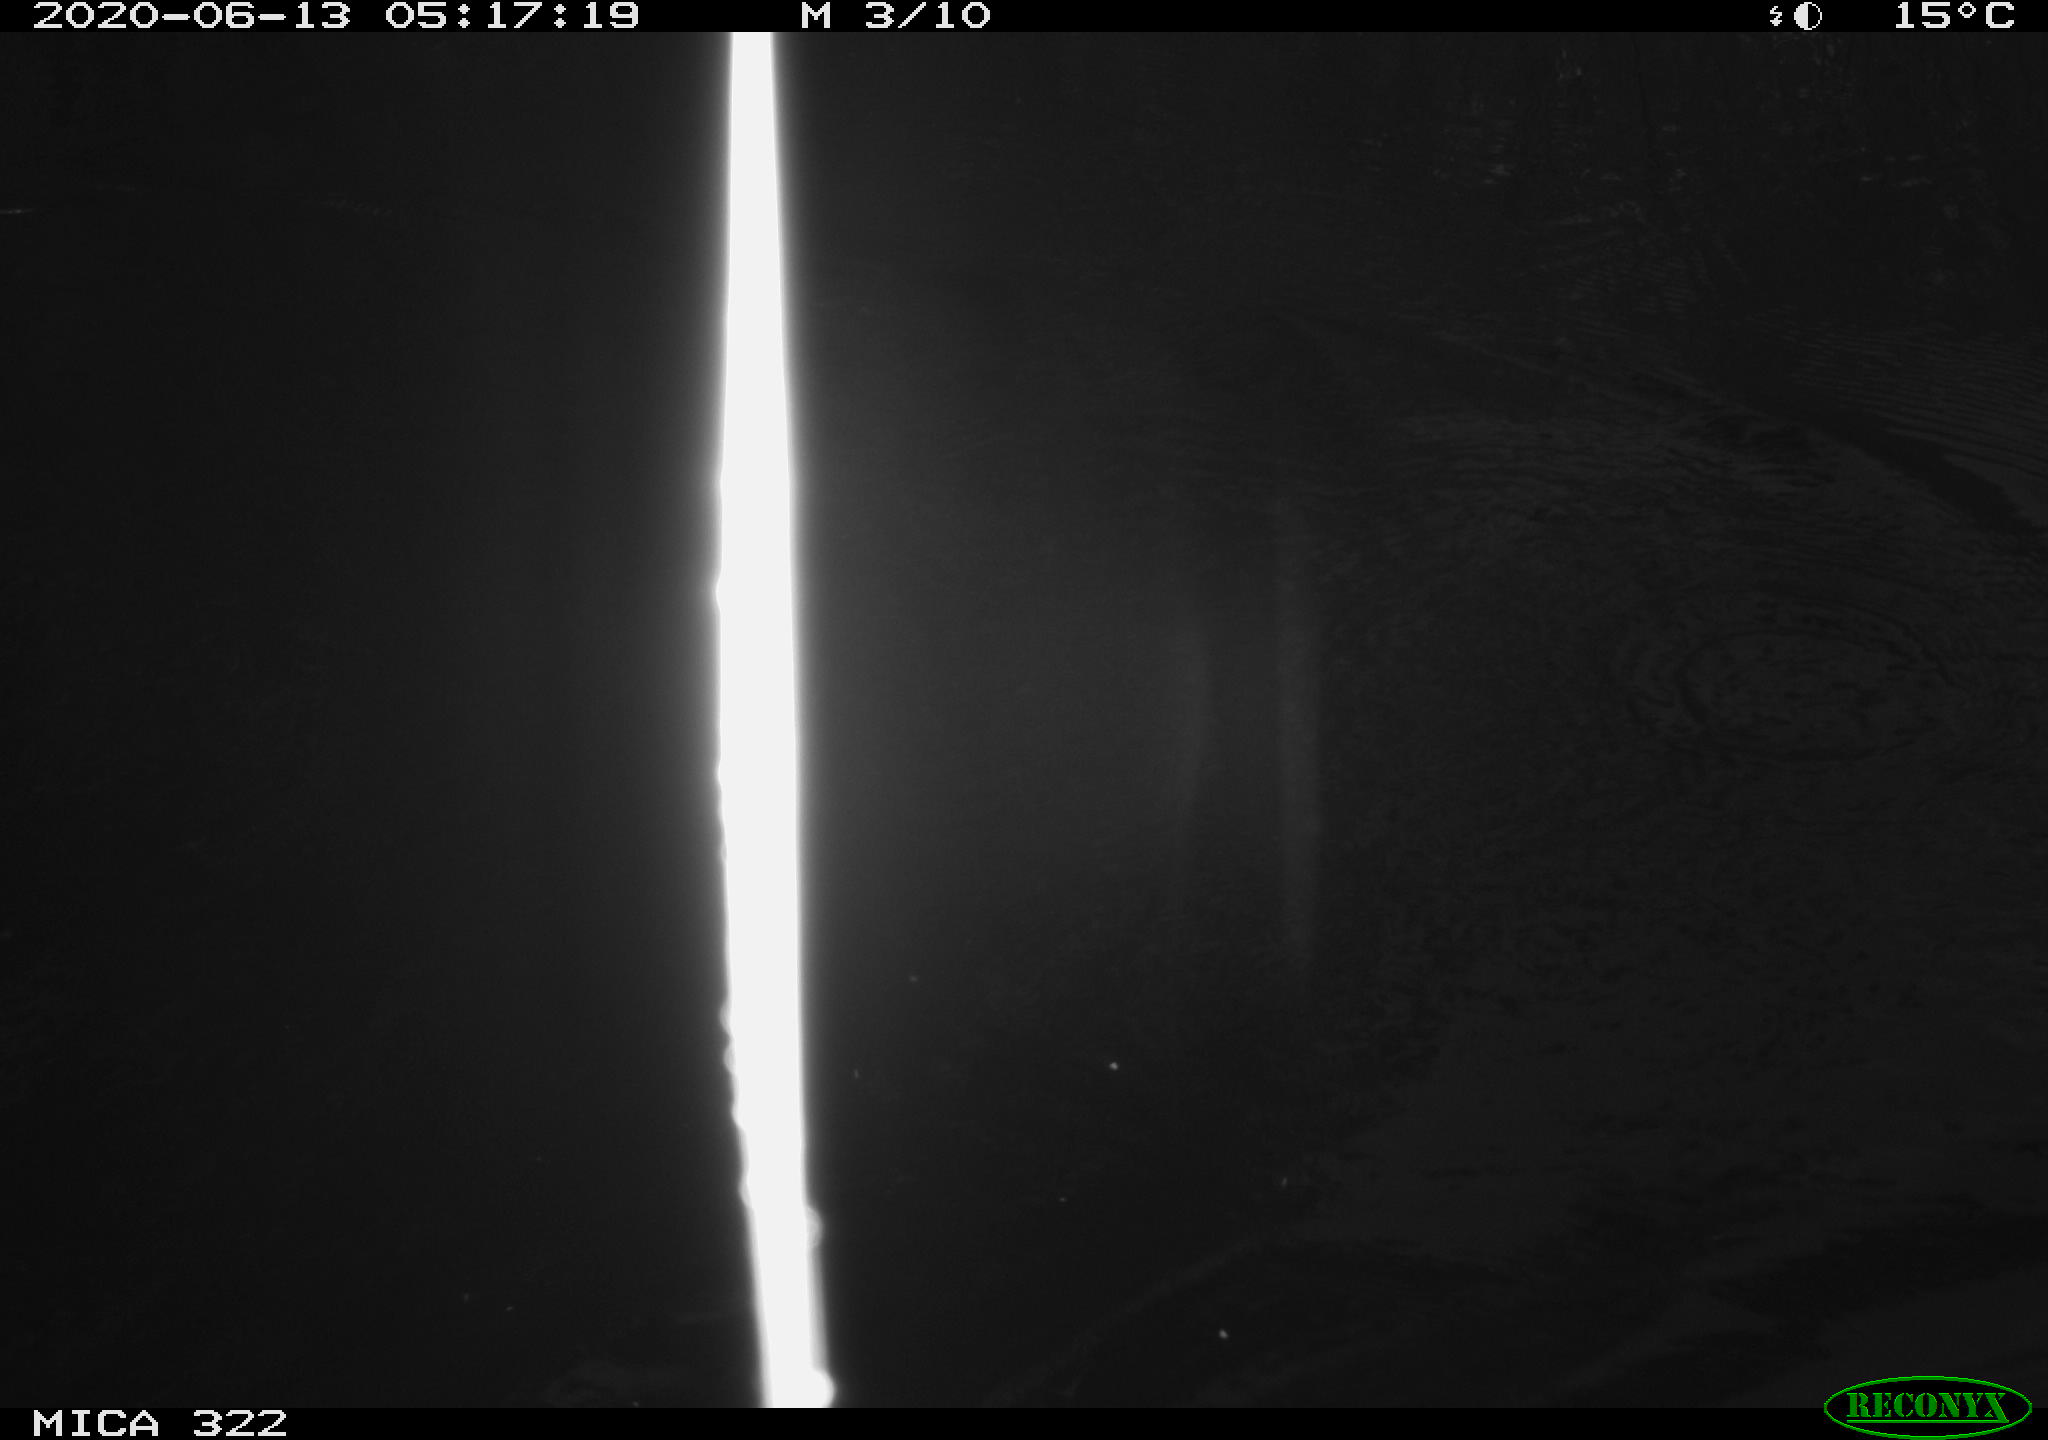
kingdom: Animalia
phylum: Chordata
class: Aves
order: Gruiformes
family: Rallidae
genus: Gallinula
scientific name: Gallinula chloropus
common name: Common moorhen
